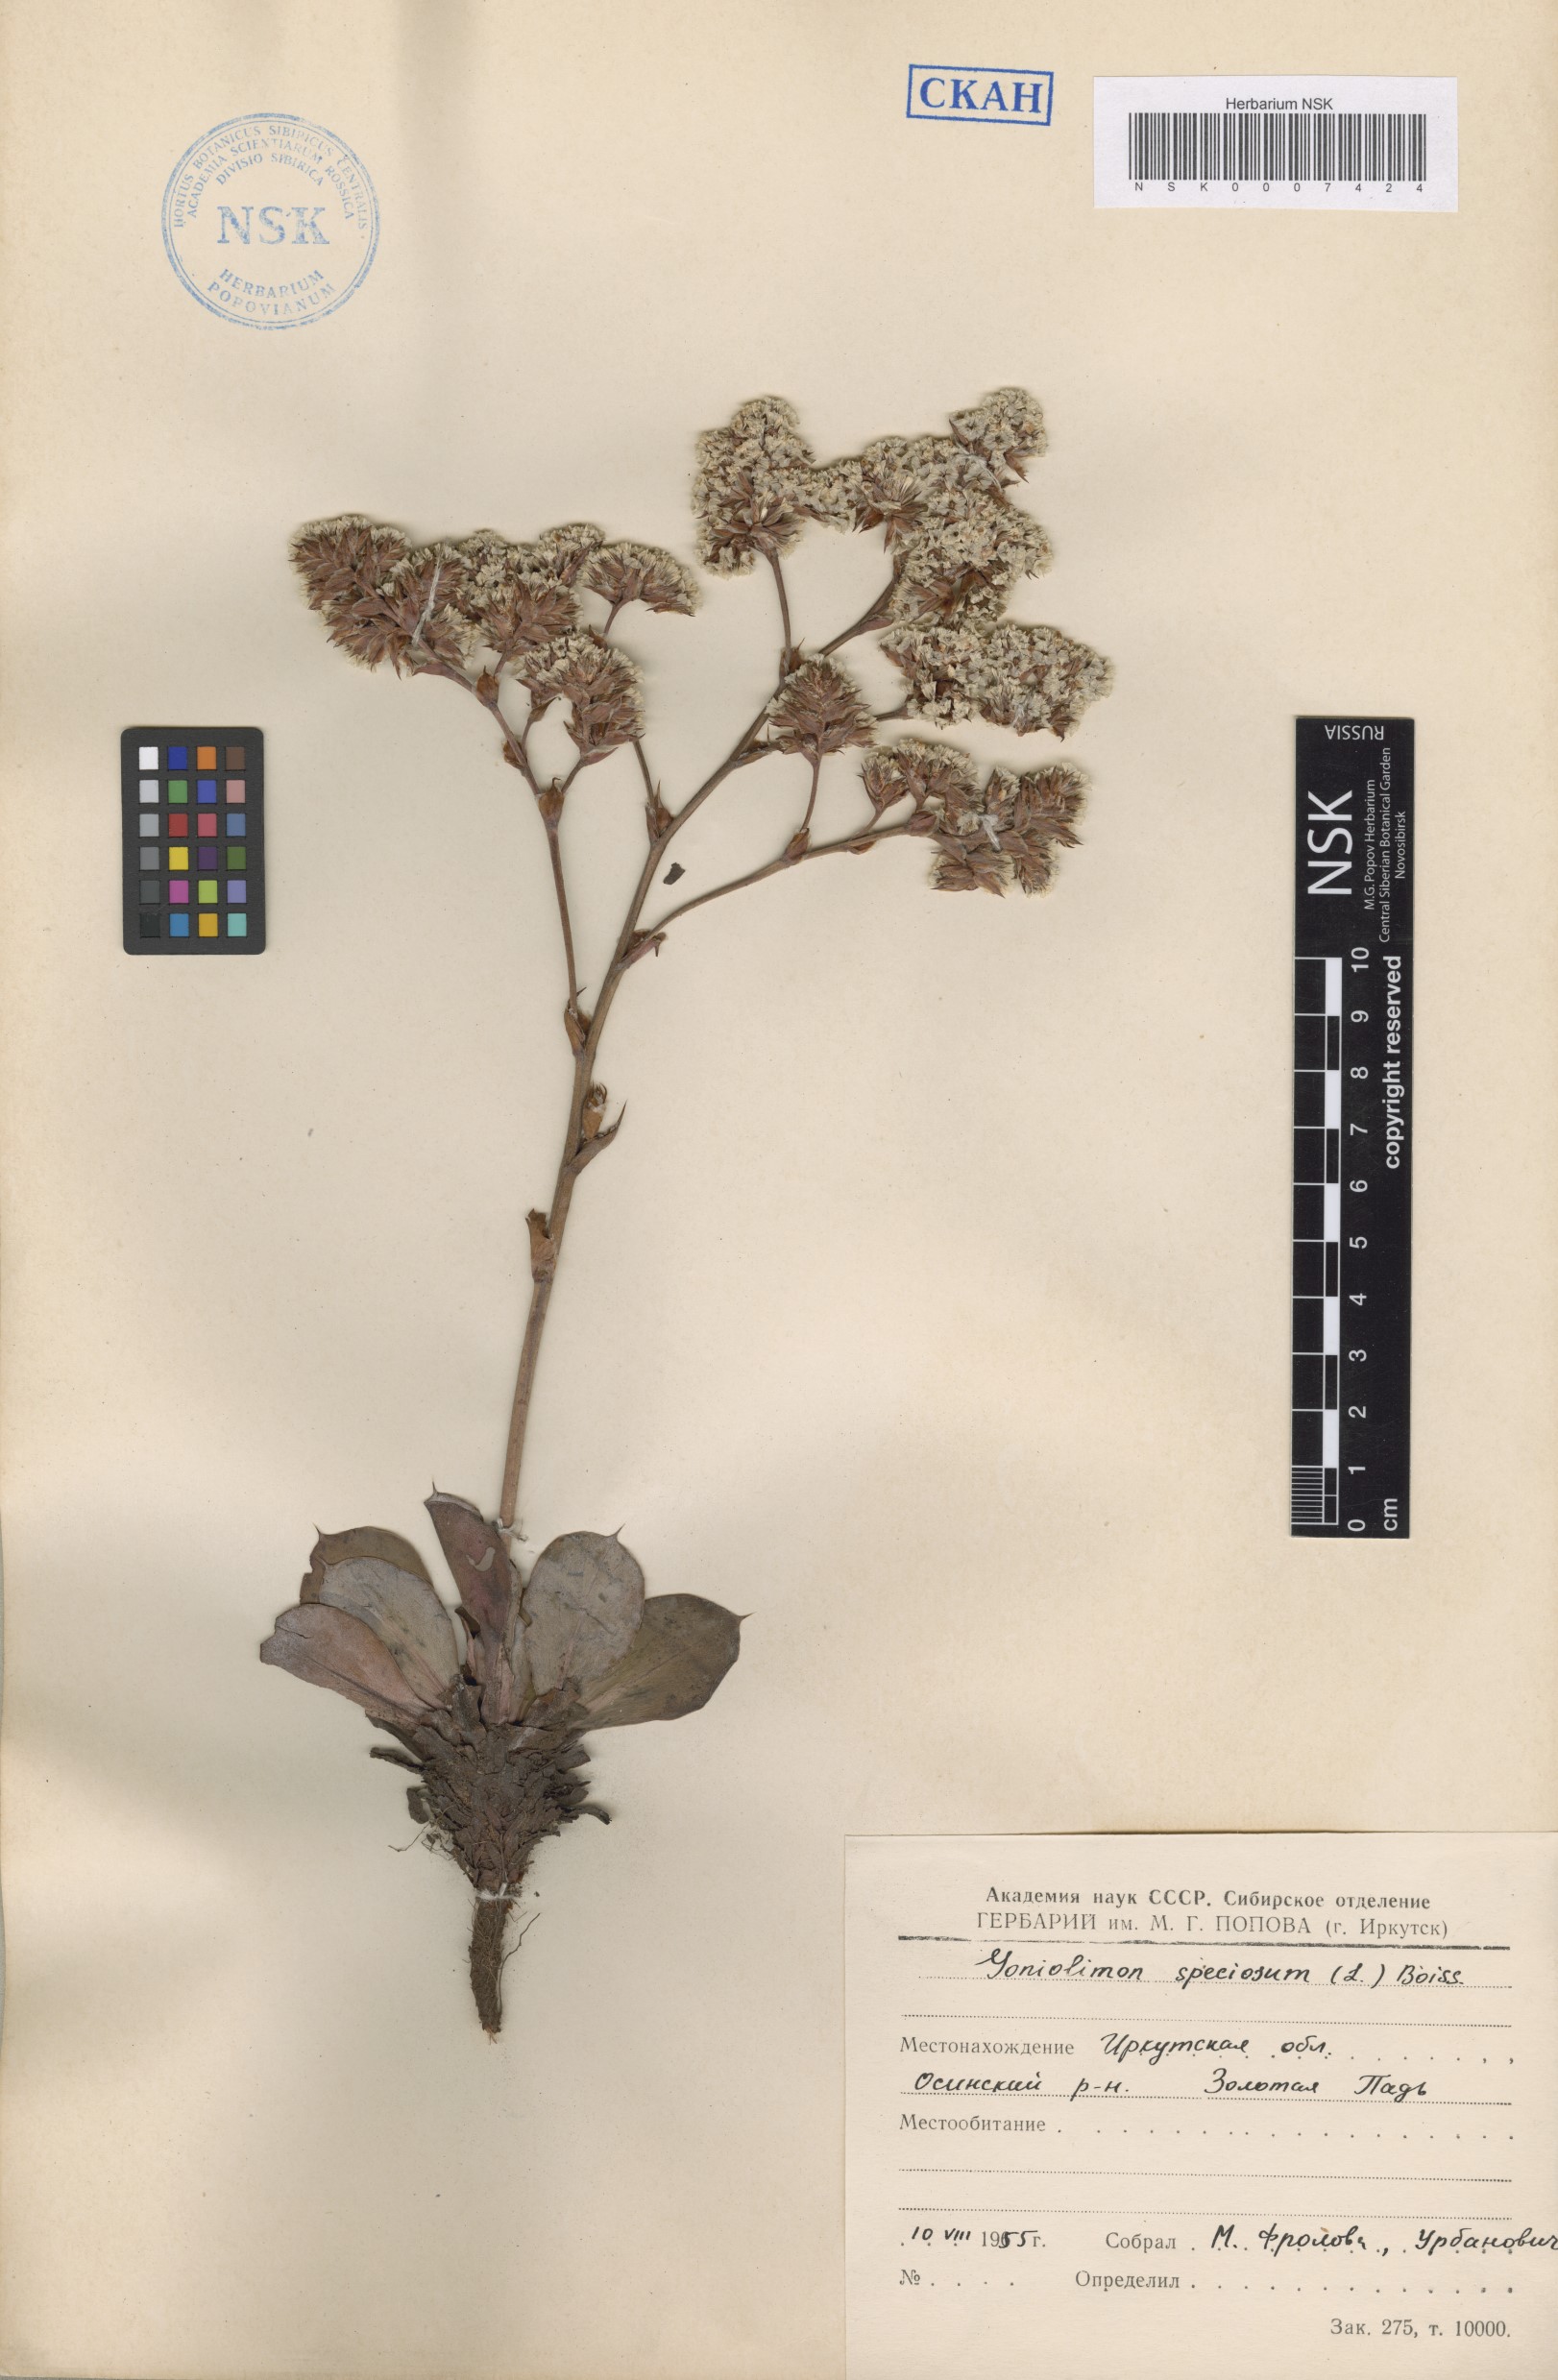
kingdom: Plantae
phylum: Tracheophyta
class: Magnoliopsida
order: Caryophyllales
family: Plumbaginaceae
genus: Goniolimon
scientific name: Goniolimon speciosum
